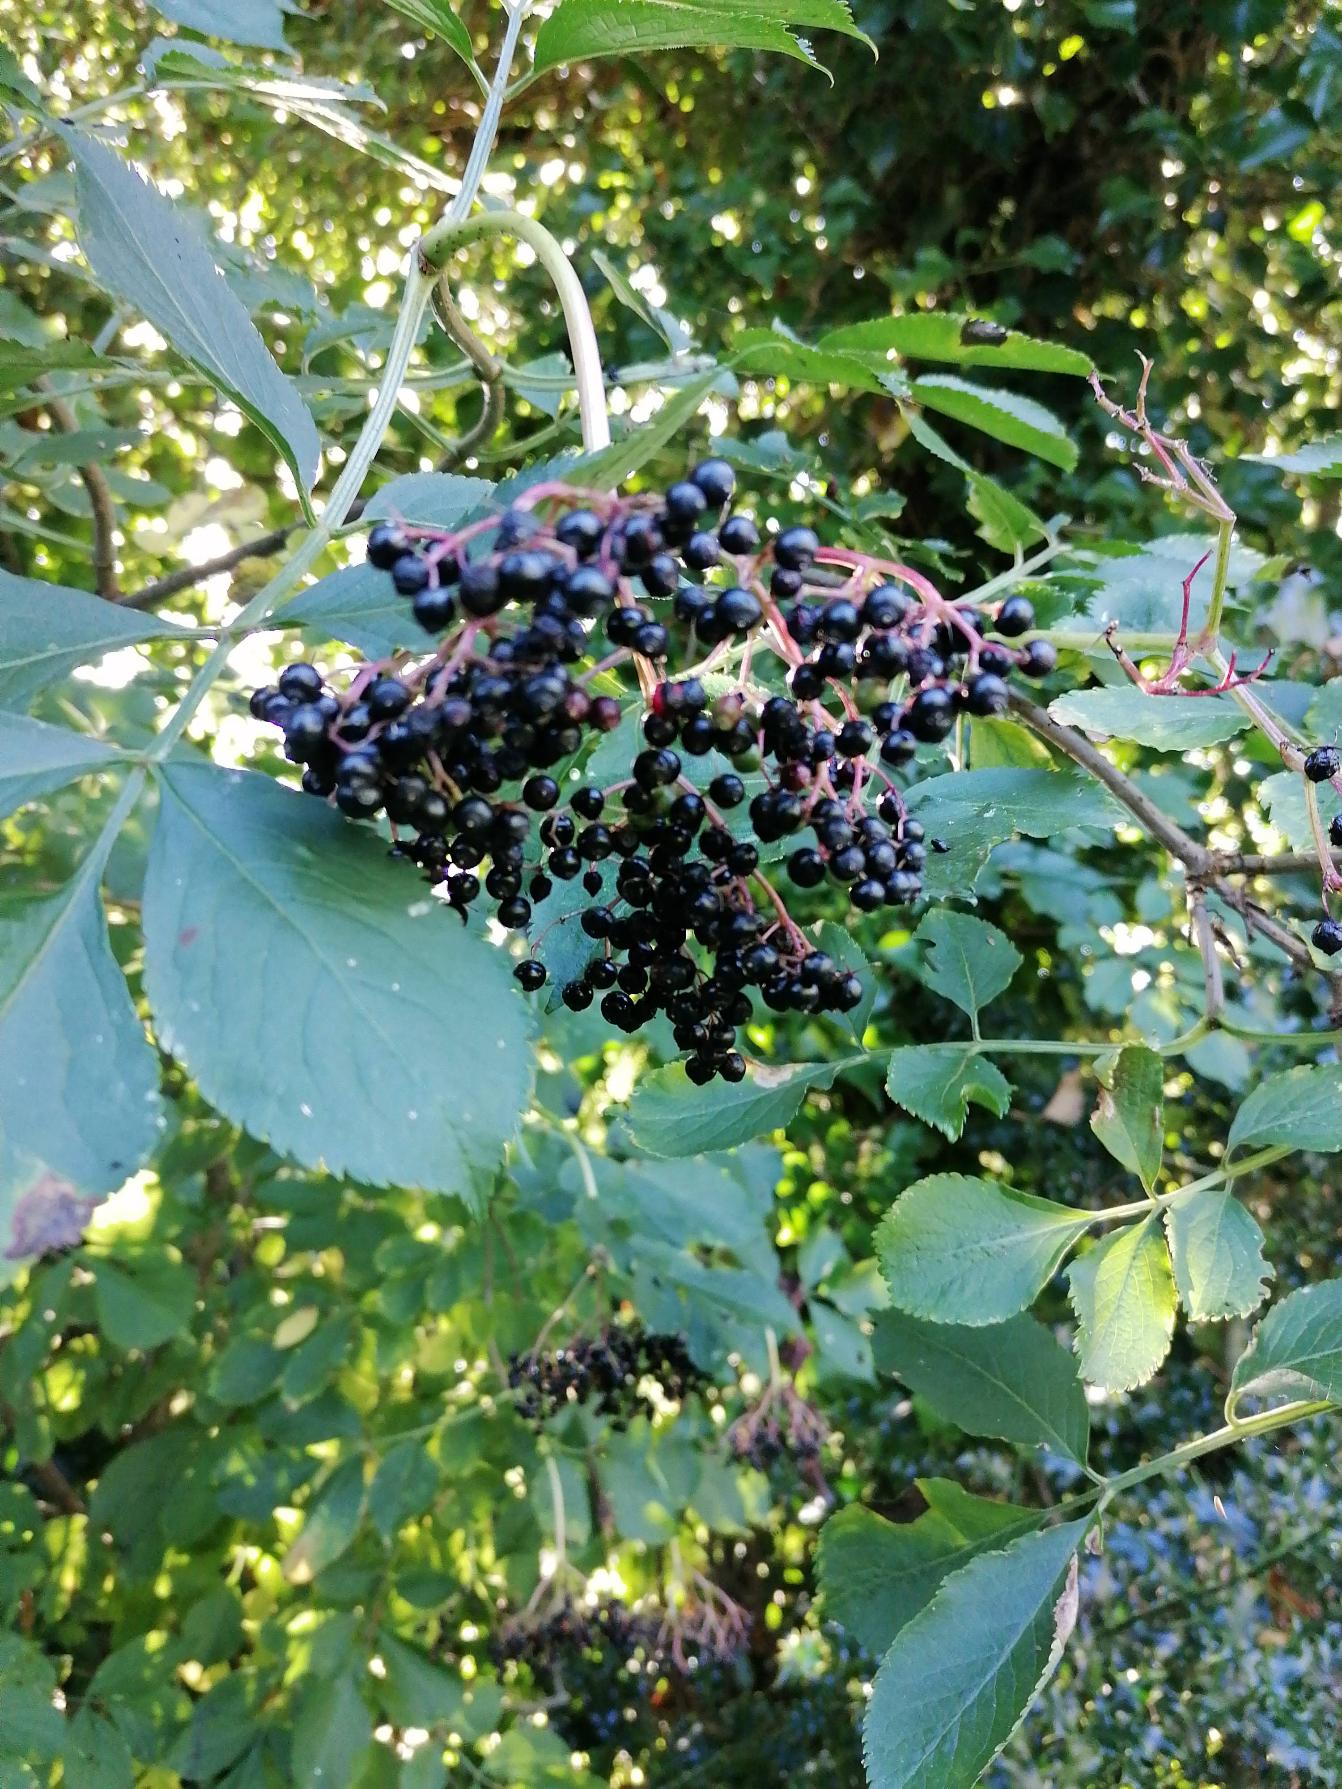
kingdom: Plantae
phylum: Tracheophyta
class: Magnoliopsida
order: Dipsacales
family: Viburnaceae
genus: Sambucus
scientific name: Sambucus nigra
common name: Almindelig hyld
